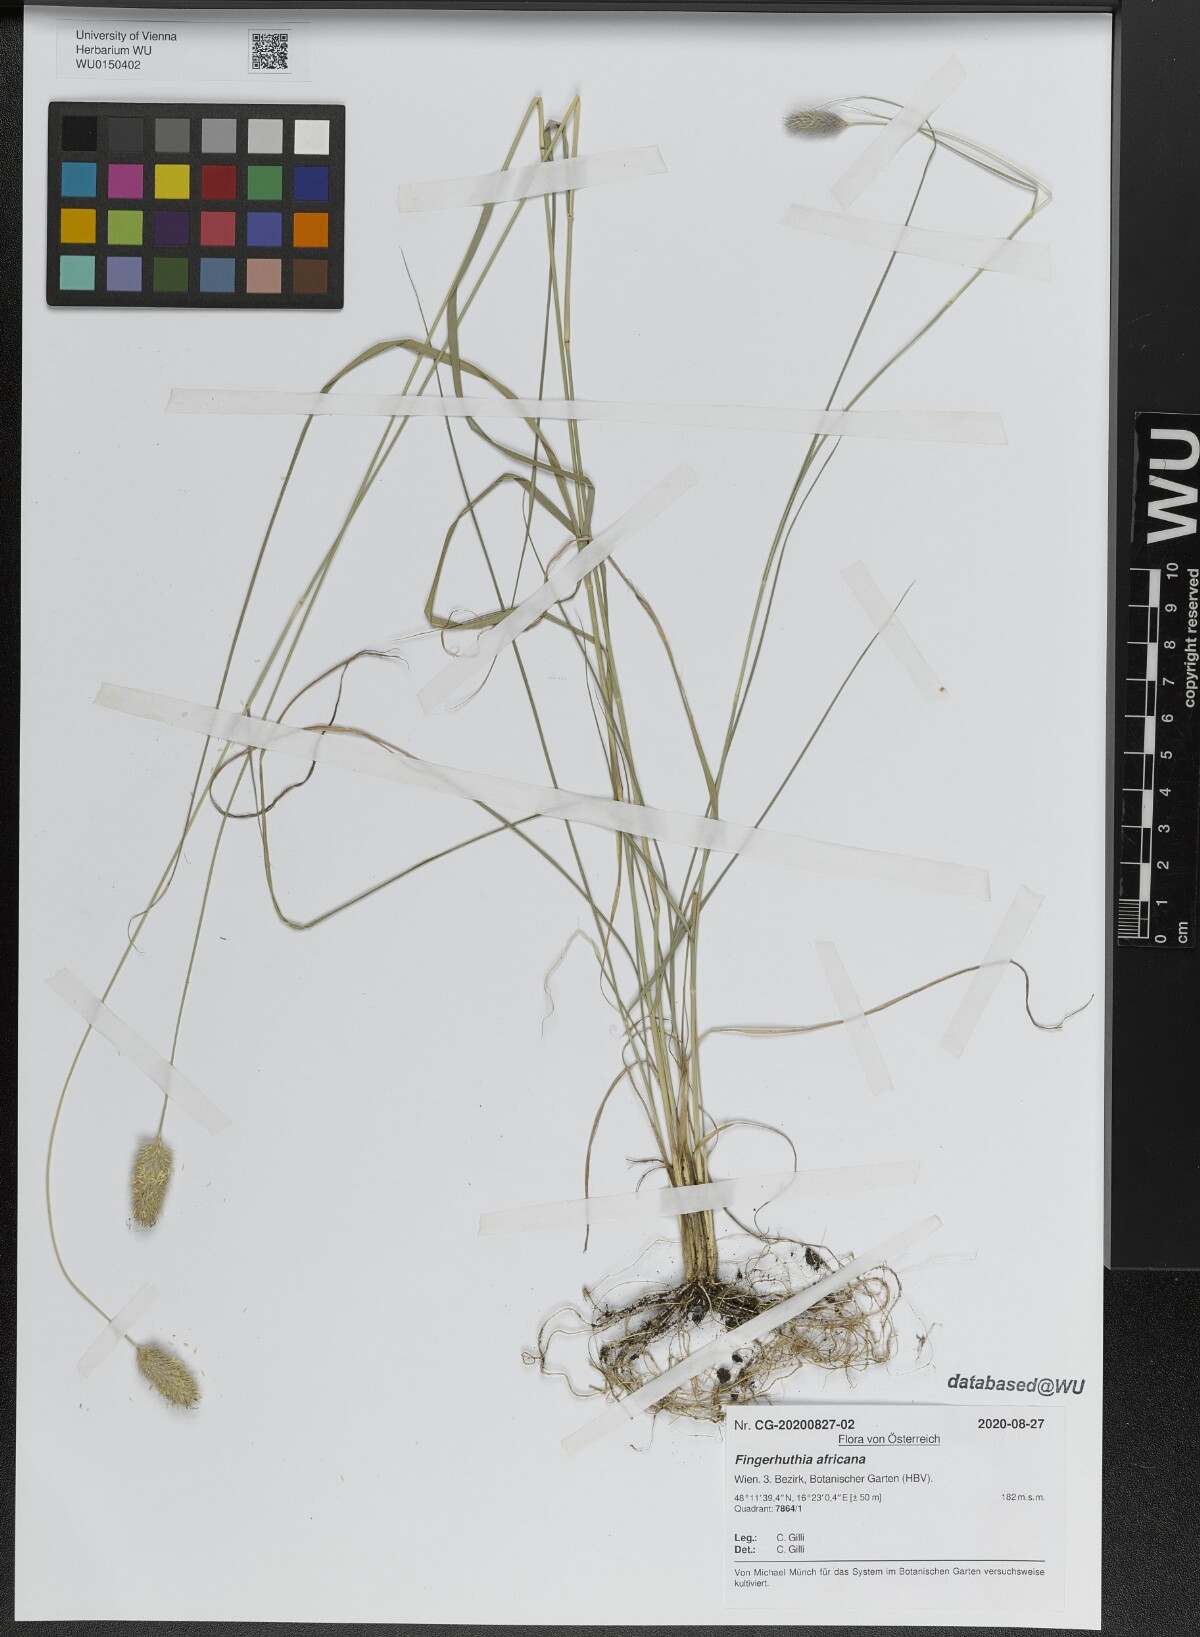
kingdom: Plantae
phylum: Tracheophyta
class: Liliopsida
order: Poales
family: Poaceae
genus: Fingerhuthia
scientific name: Fingerhuthia africana
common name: Zulu fescue
